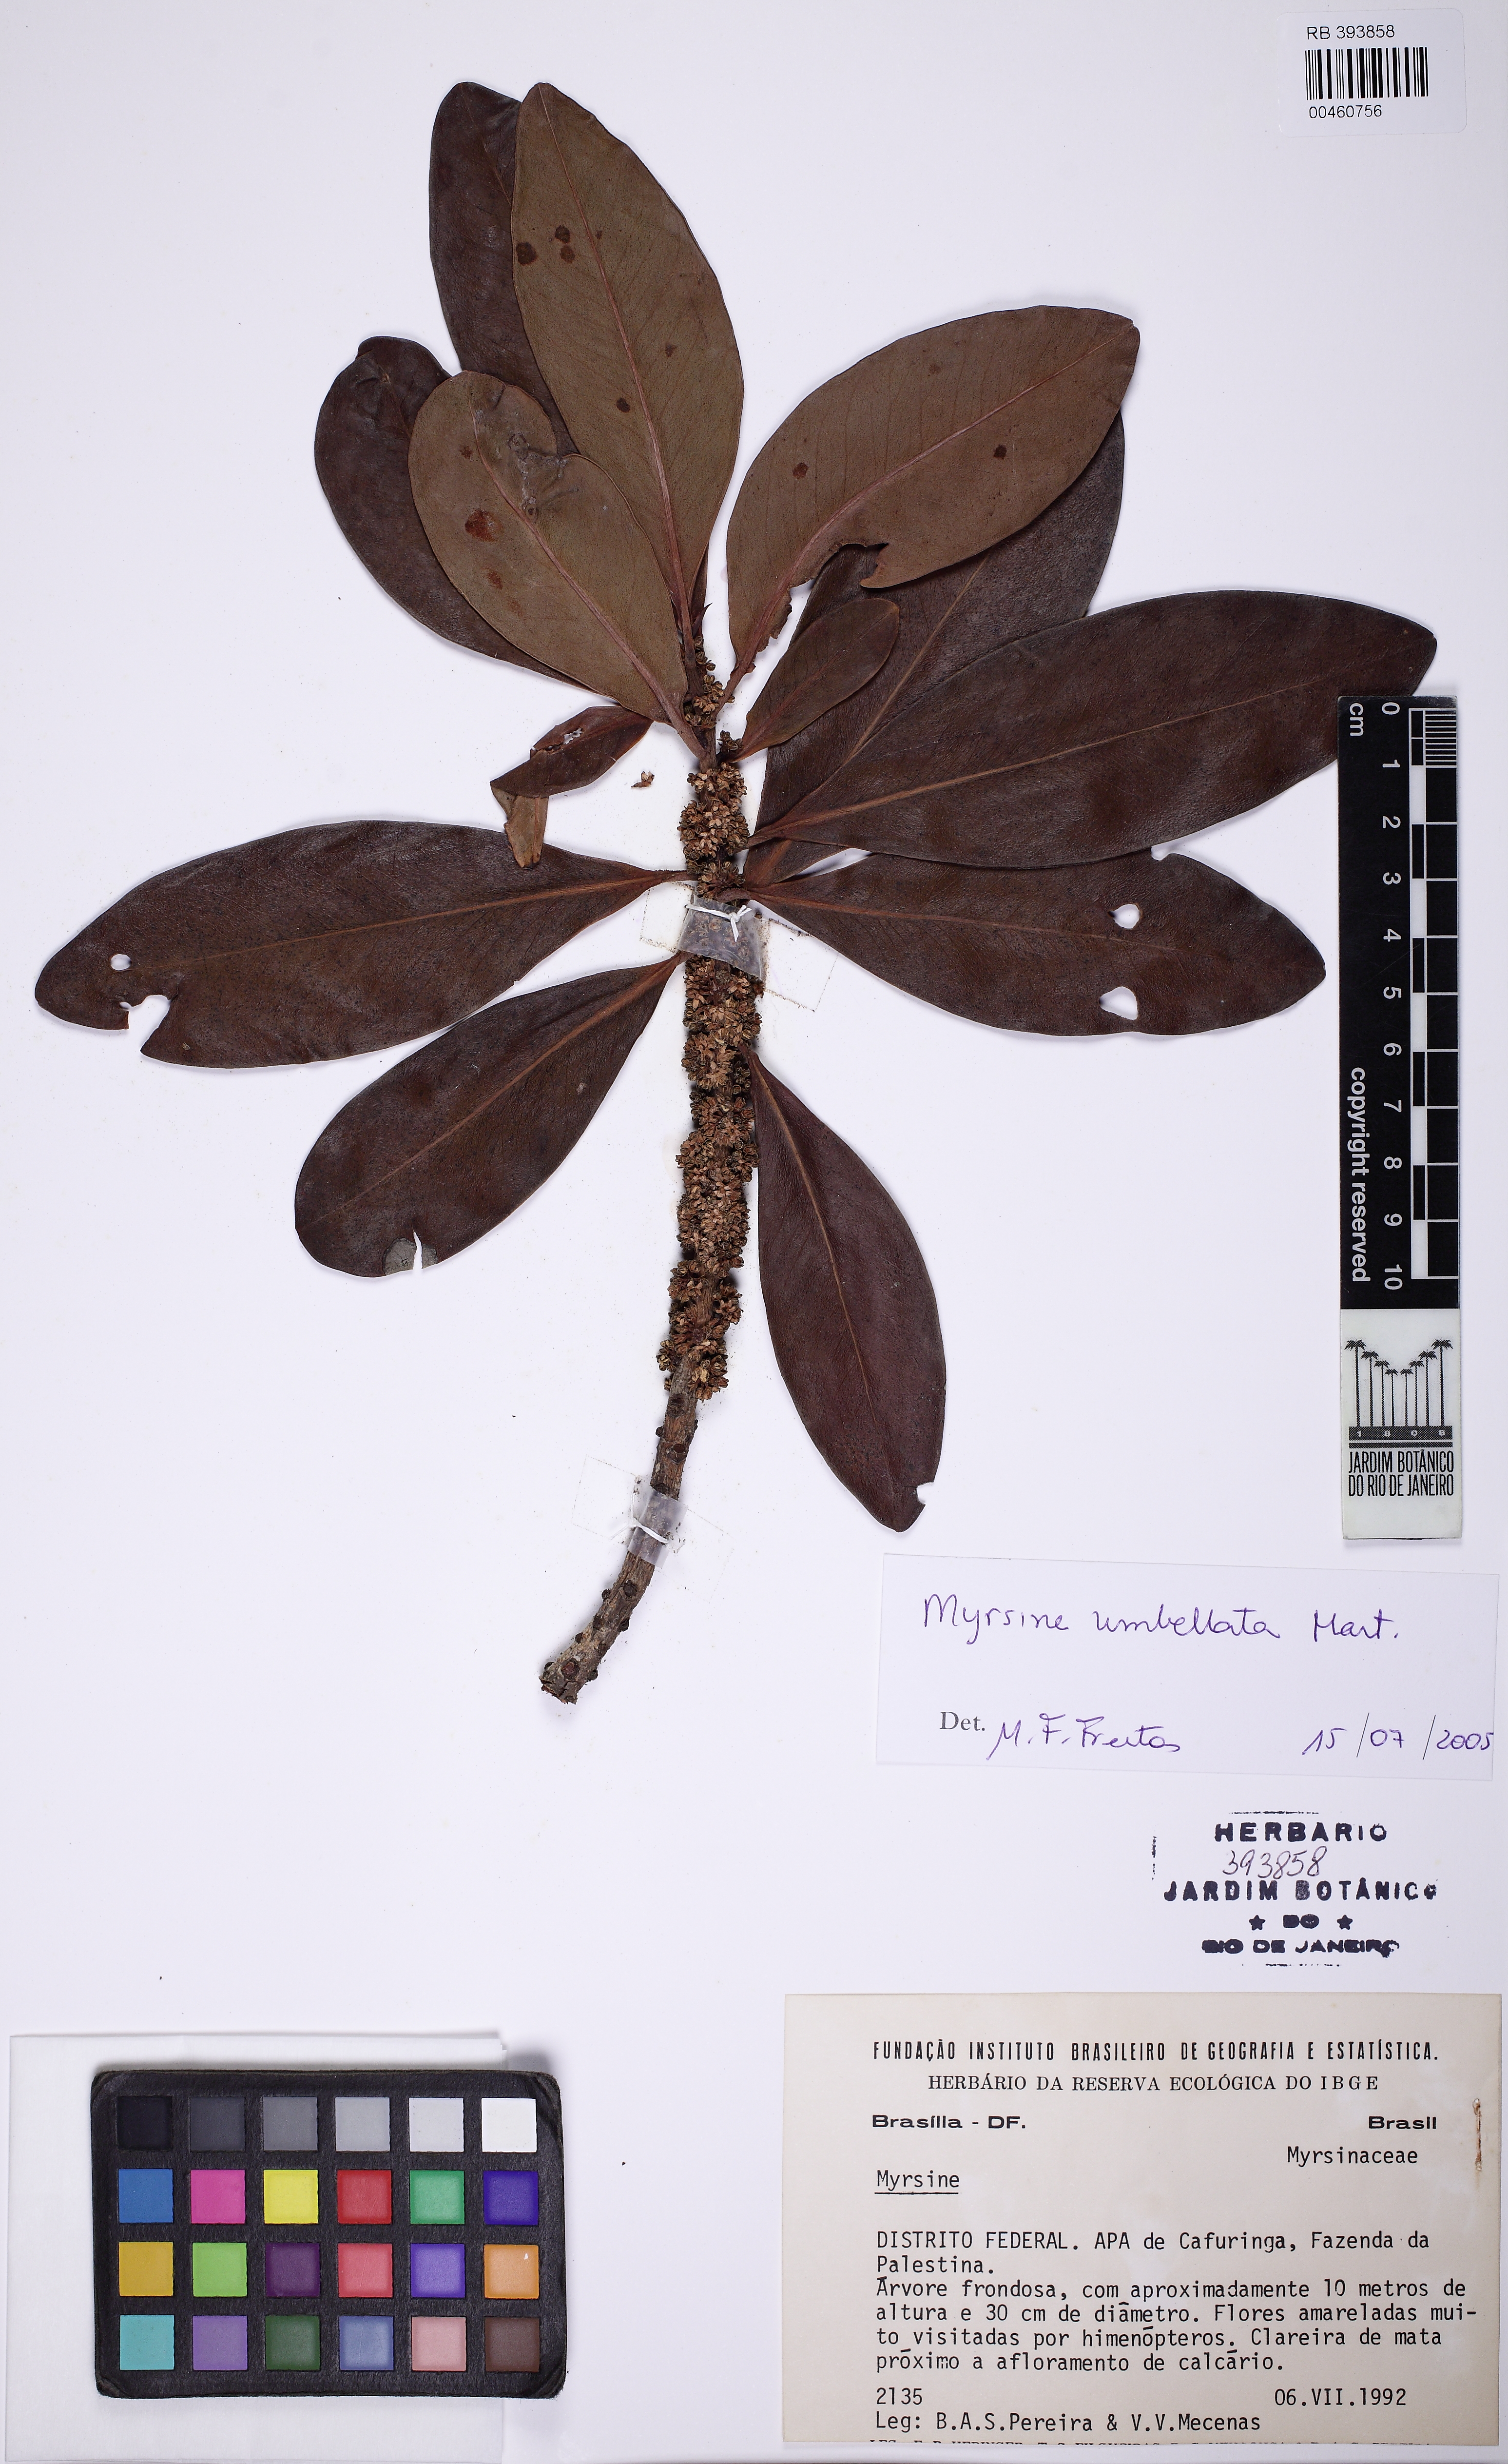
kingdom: Plantae
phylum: Tracheophyta
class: Magnoliopsida
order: Ericales
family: Primulaceae
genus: Myrsine
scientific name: Myrsine
